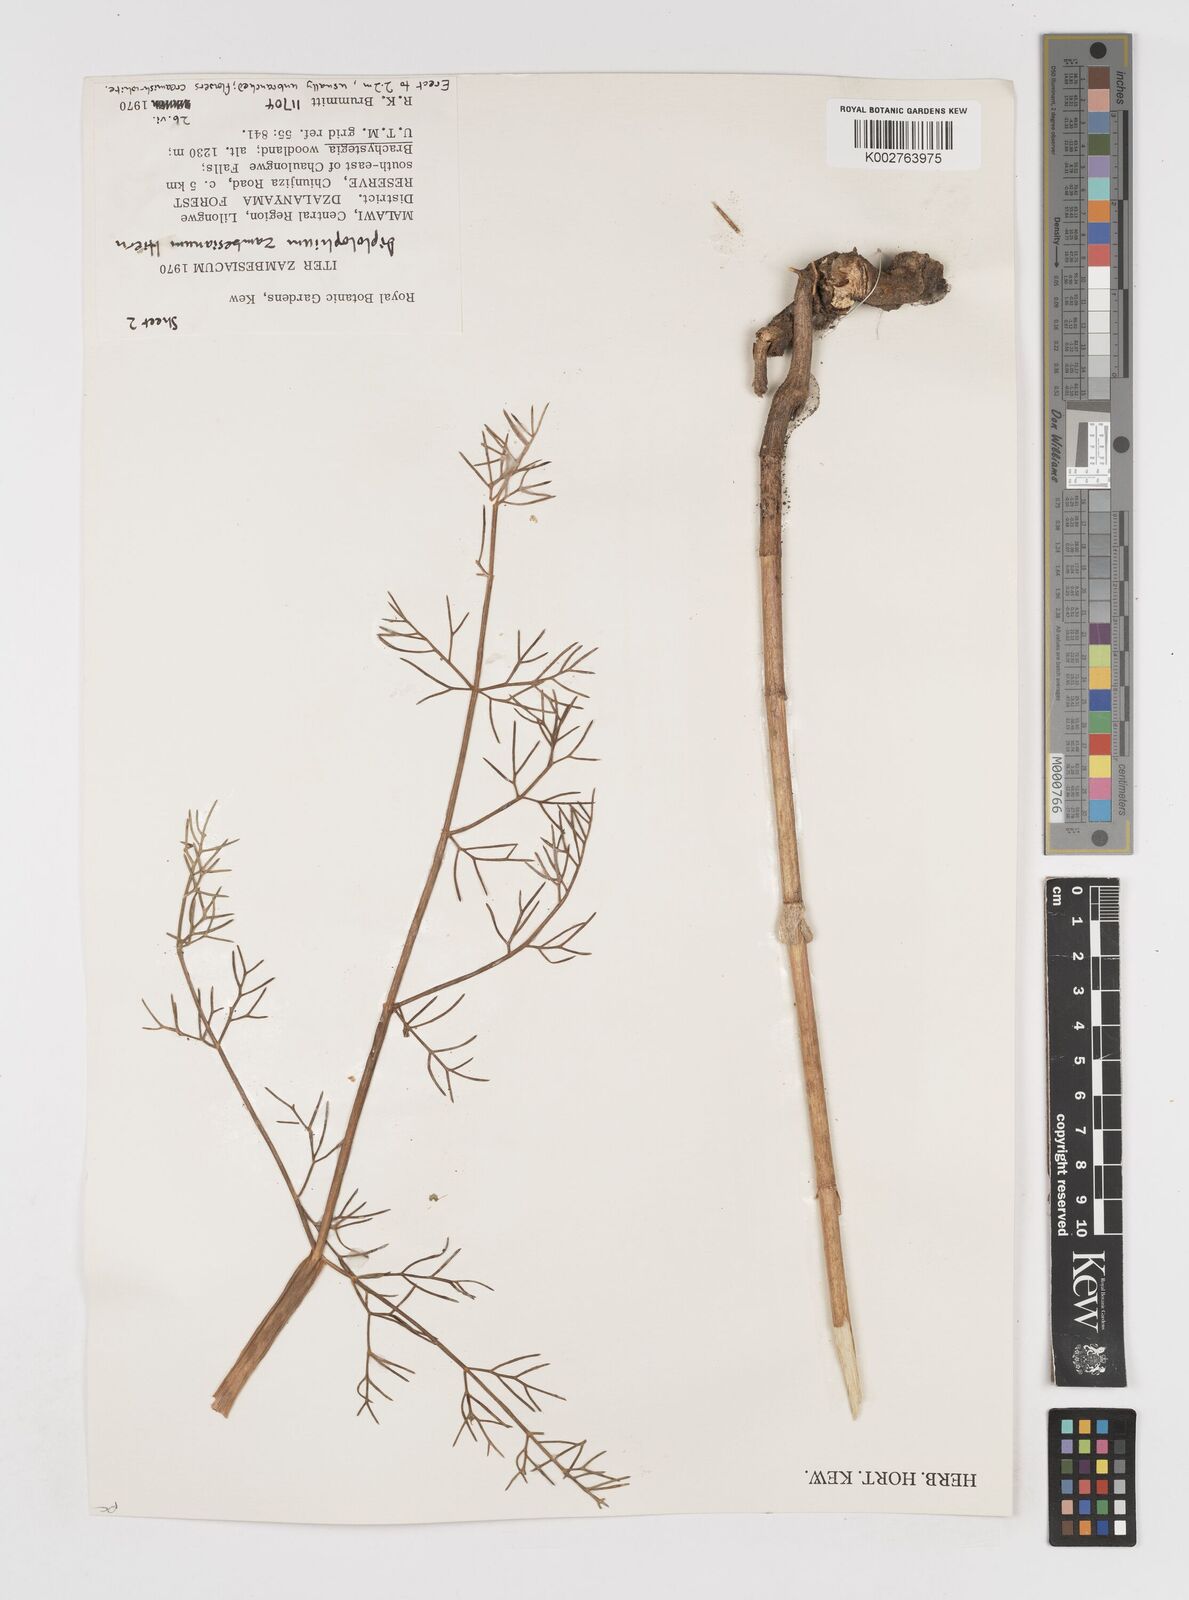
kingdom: Plantae
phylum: Tracheophyta
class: Magnoliopsida
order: Apiales
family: Apiaceae
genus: Diplolophium
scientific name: Diplolophium zambesianum
